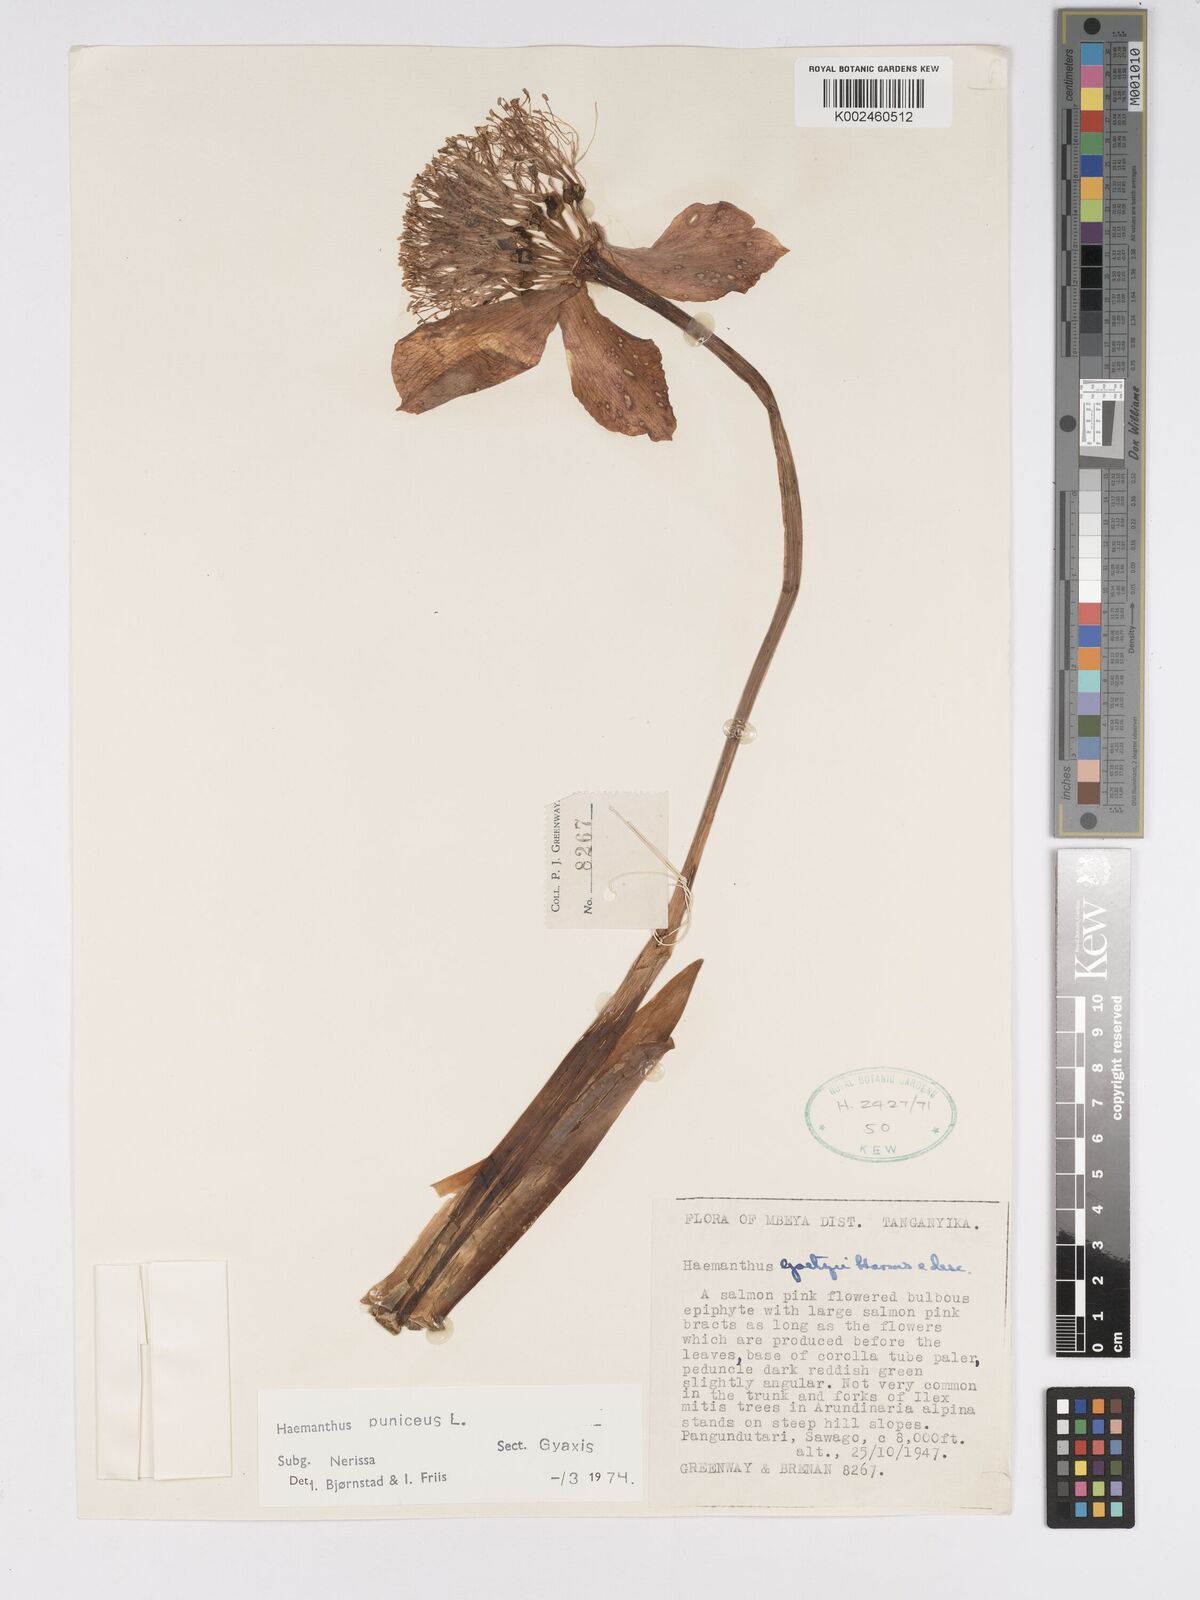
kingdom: Plantae
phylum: Tracheophyta
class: Liliopsida
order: Asparagales
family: Amaryllidaceae
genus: Scadoxus
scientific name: Scadoxus puniceus
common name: Royal-paintbrush
